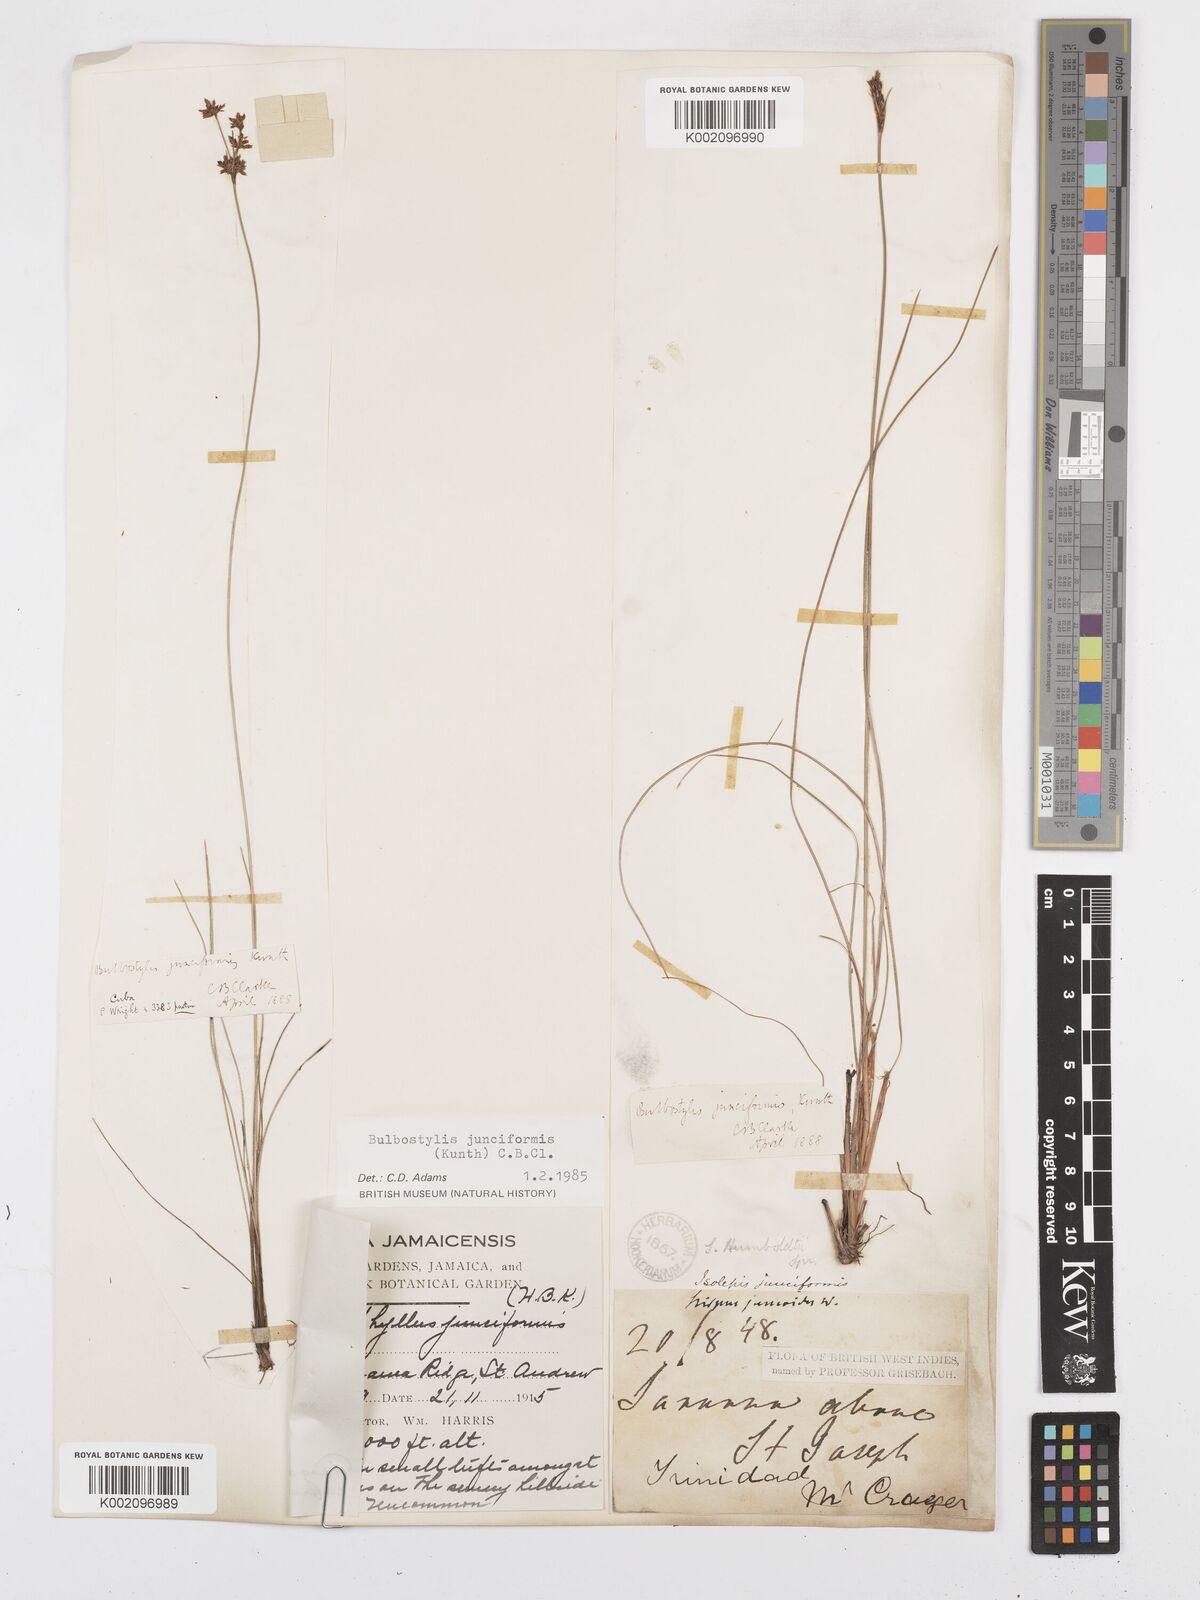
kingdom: Plantae
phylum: Tracheophyta
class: Liliopsida
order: Poales
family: Cyperaceae
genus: Bulbostylis
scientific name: Bulbostylis junciformis
